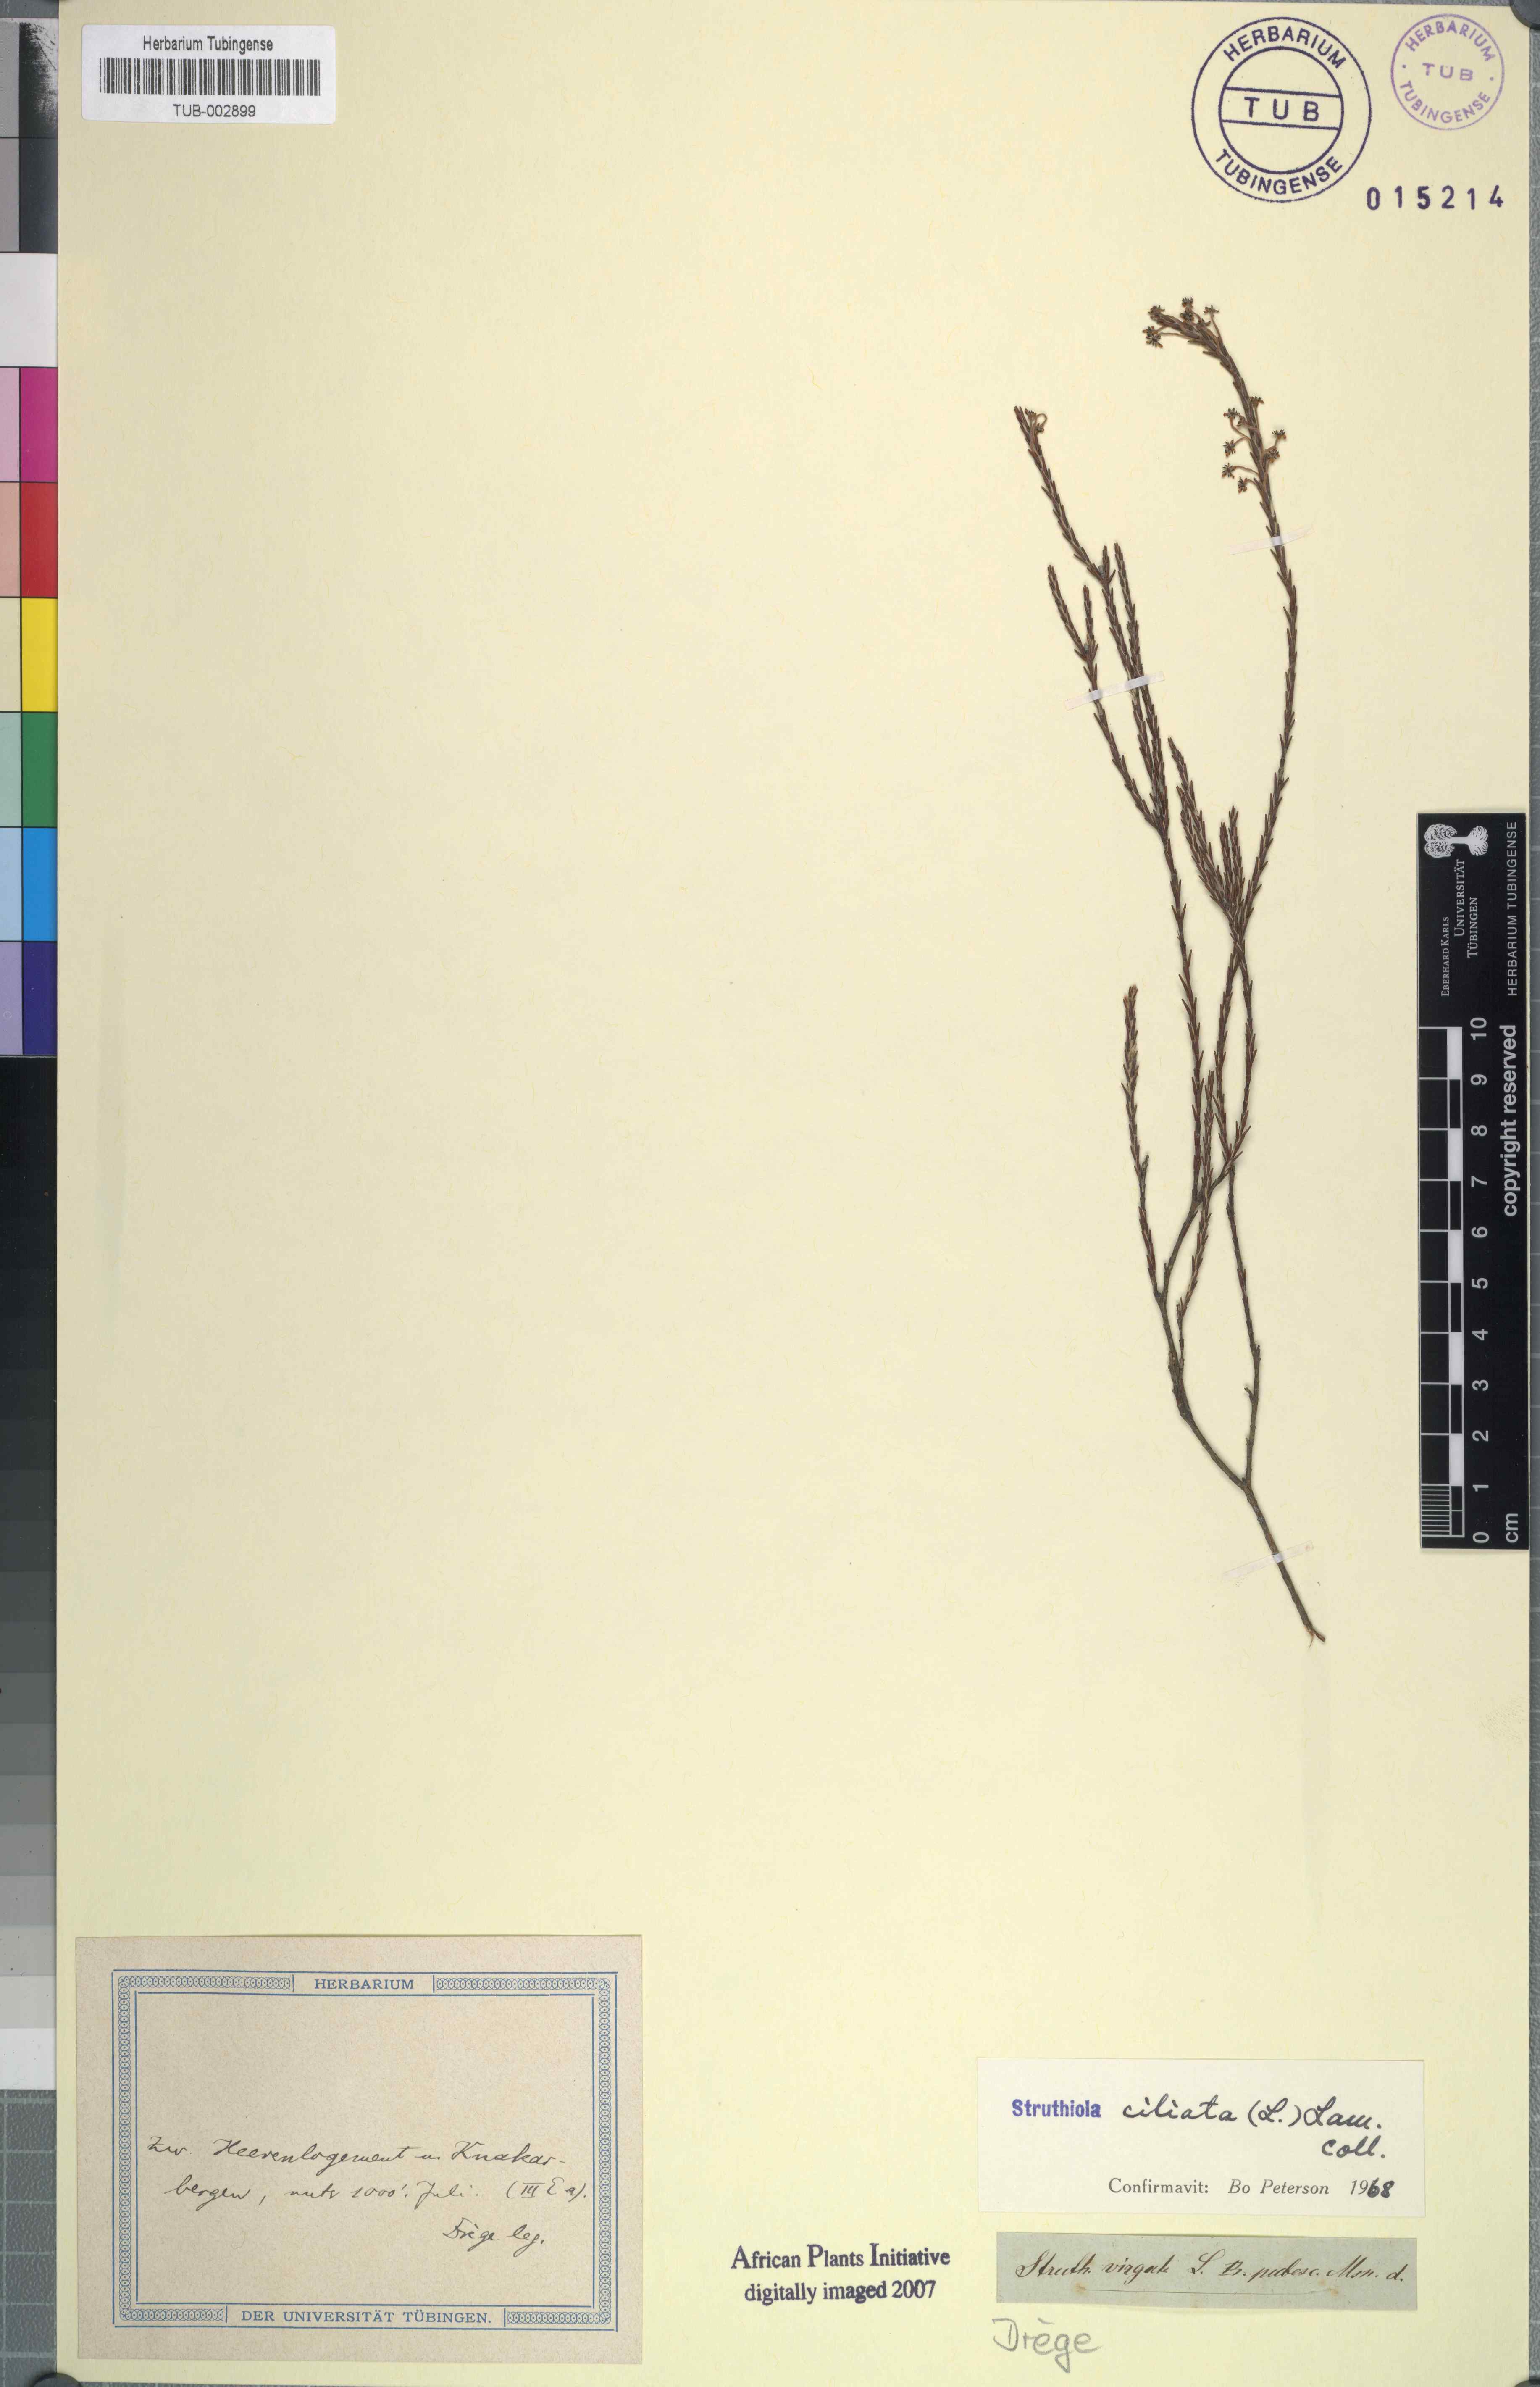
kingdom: Plantae
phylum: Tracheophyta
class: Magnoliopsida
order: Malvales
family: Thymelaeaceae
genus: Struthiola
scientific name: Struthiola ciliata
